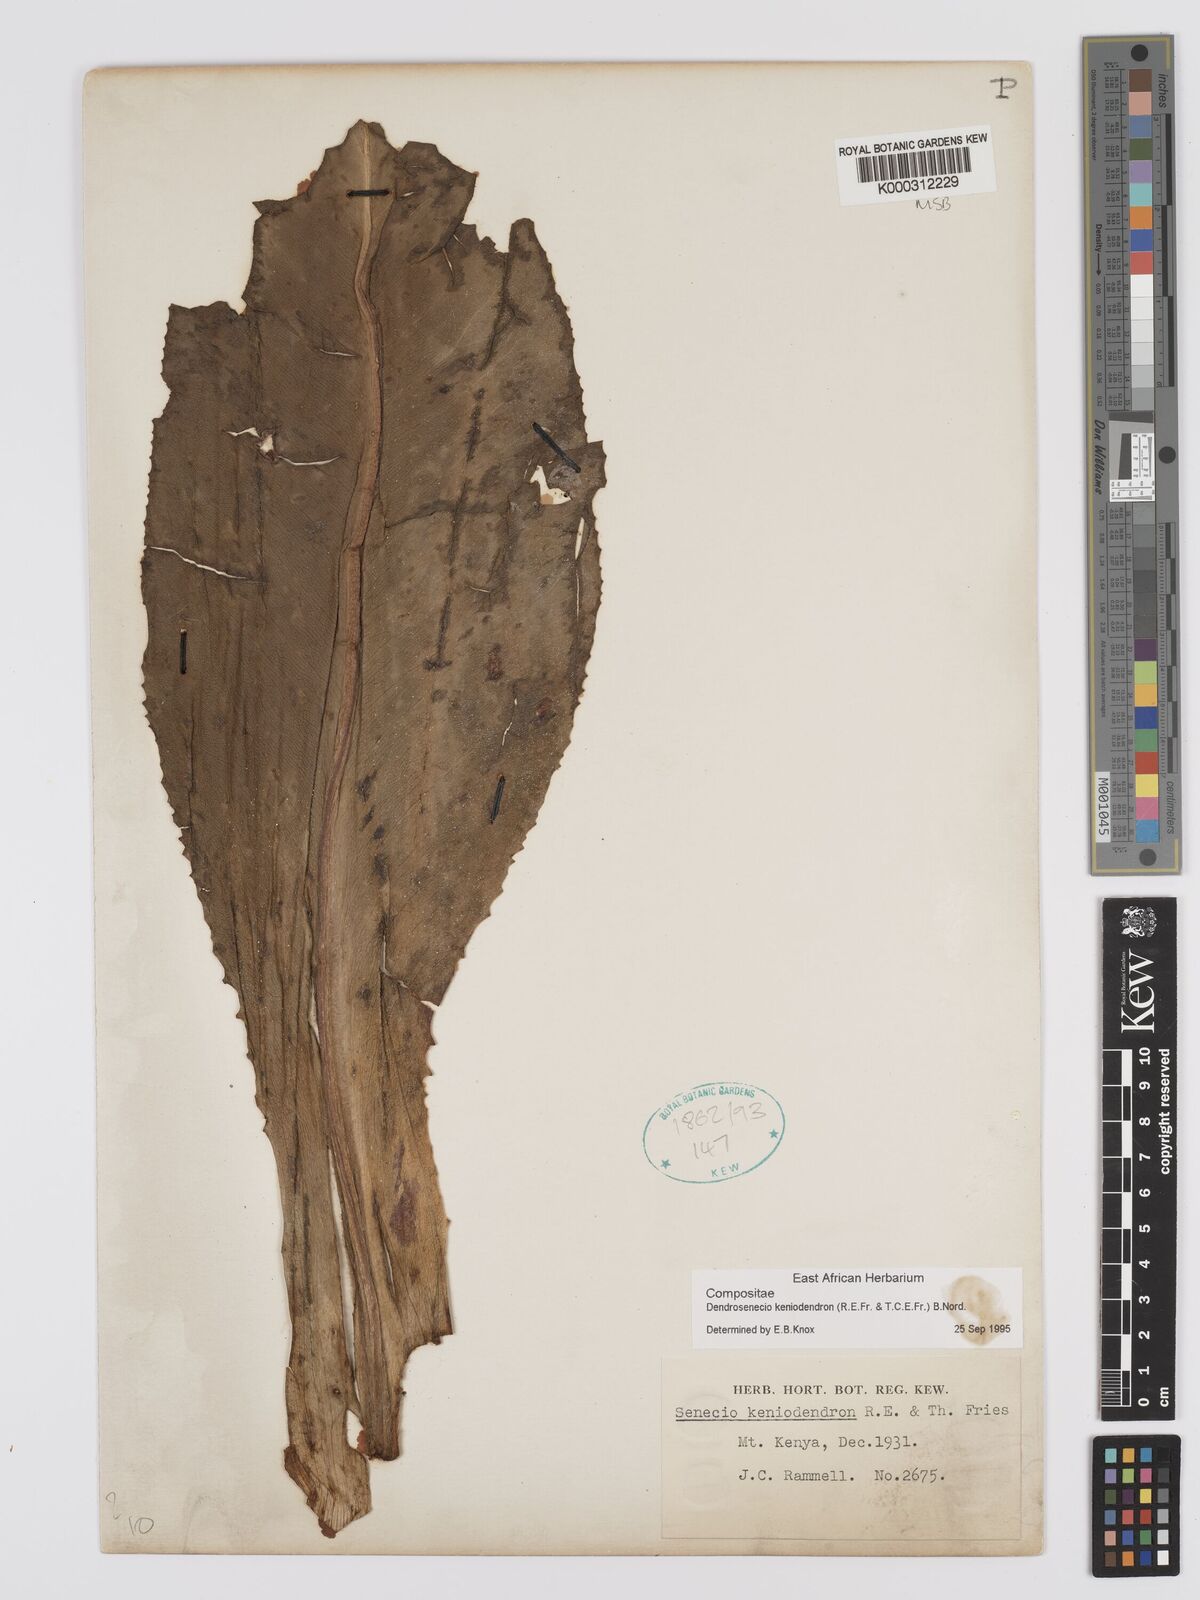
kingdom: Plantae
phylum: Tracheophyta
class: Magnoliopsida
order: Asterales
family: Asteraceae
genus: Dendrosenecio
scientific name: Dendrosenecio keniodendron
